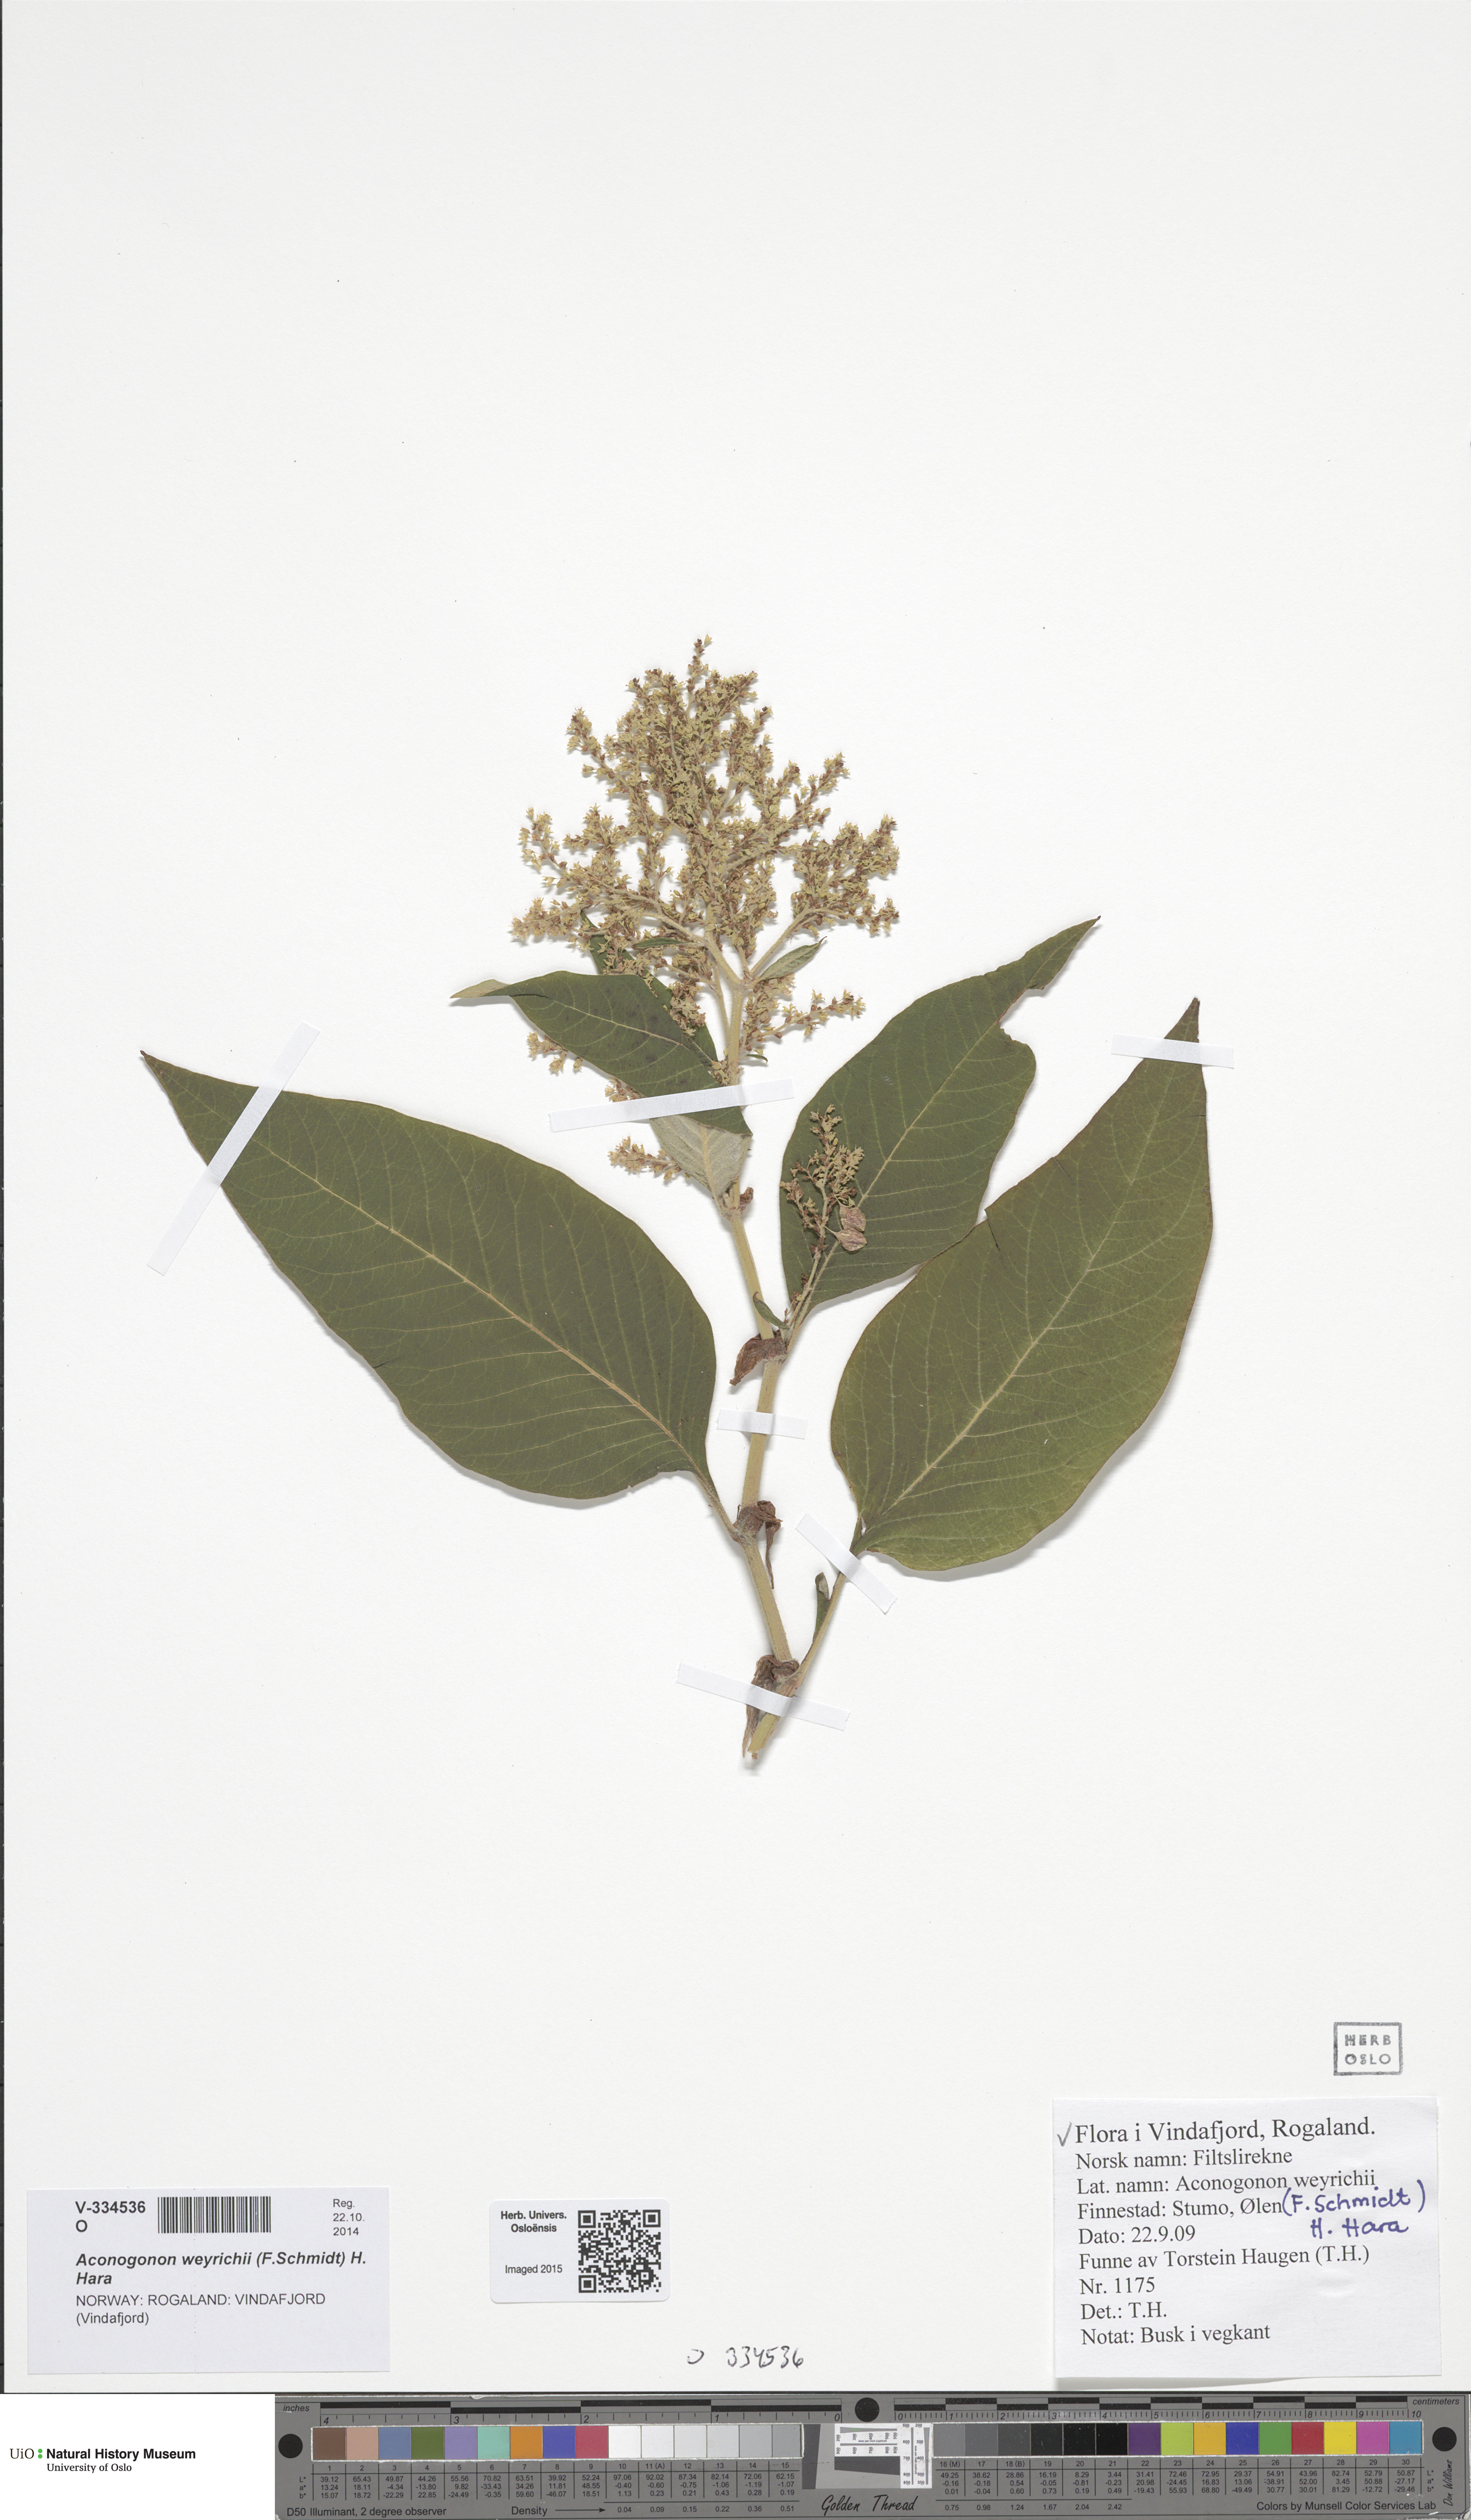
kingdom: Plantae
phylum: Tracheophyta
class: Magnoliopsida
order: Caryophyllales
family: Polygonaceae
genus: Koenigia
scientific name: Koenigia weyrichii
